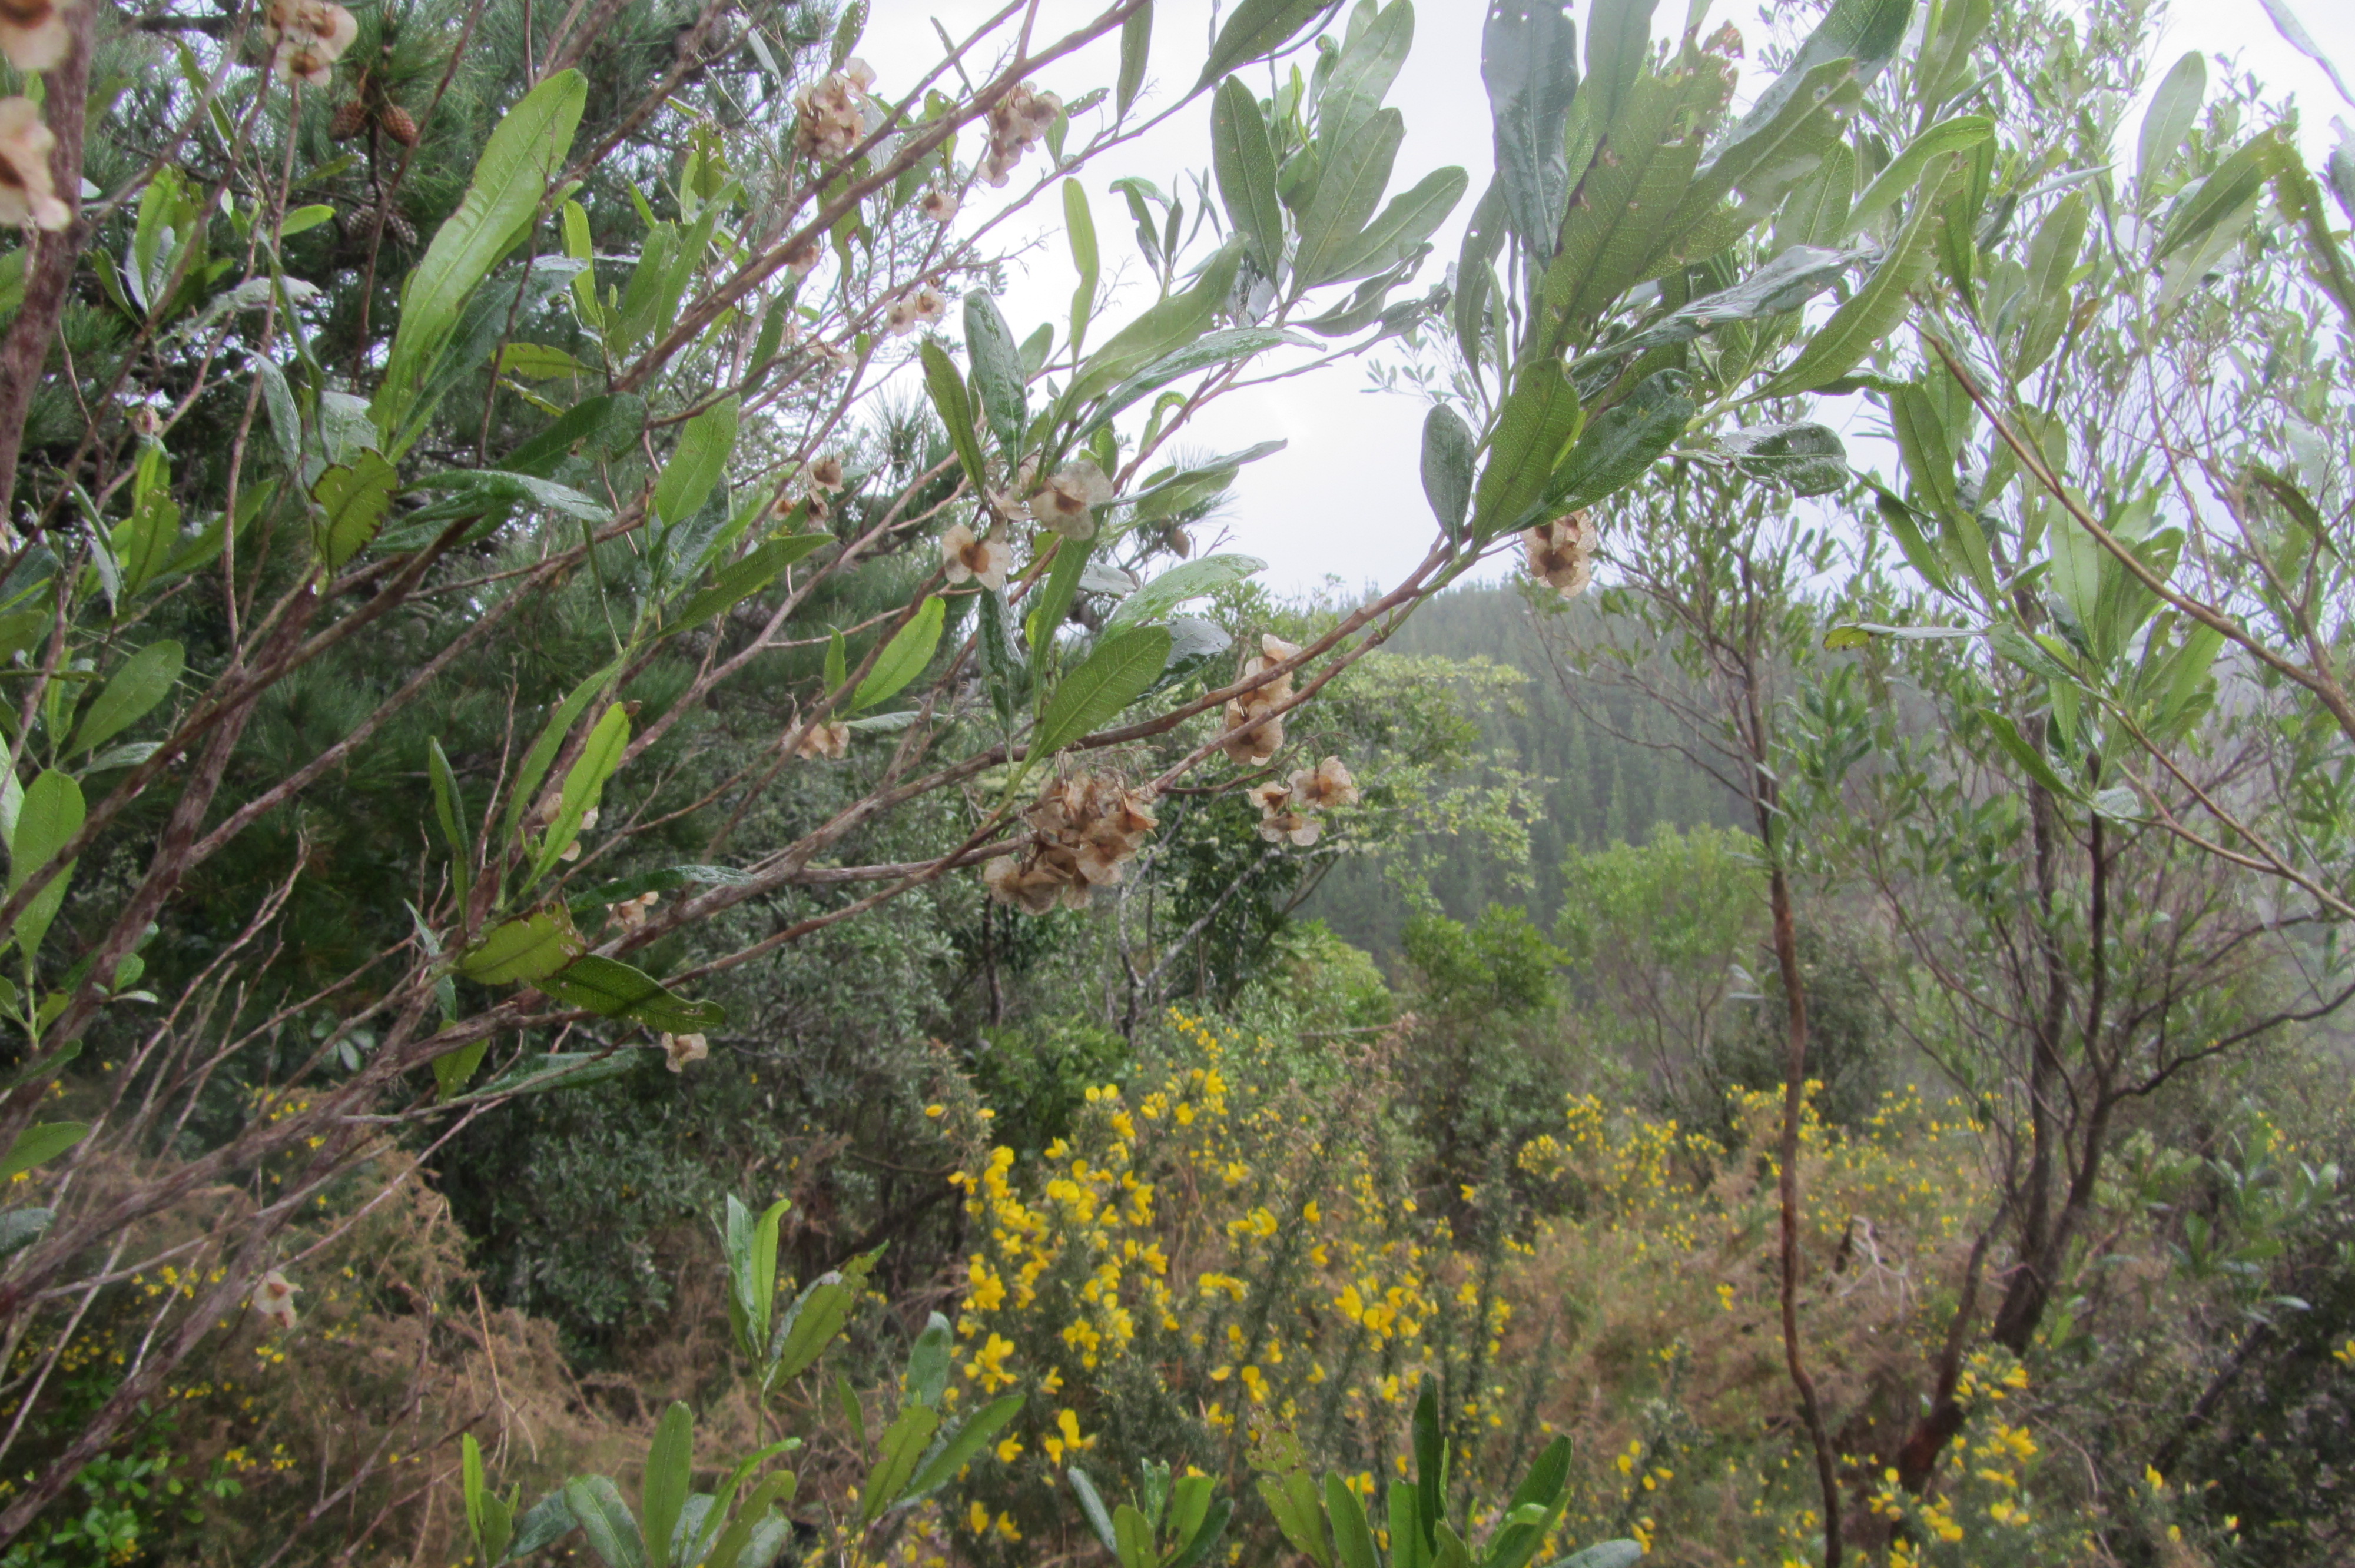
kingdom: Plantae
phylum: Tracheophyta
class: Magnoliopsida
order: Sapindales
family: Sapindaceae
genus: Dodonaea
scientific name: Dodonaea viscosa
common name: Hopbush
